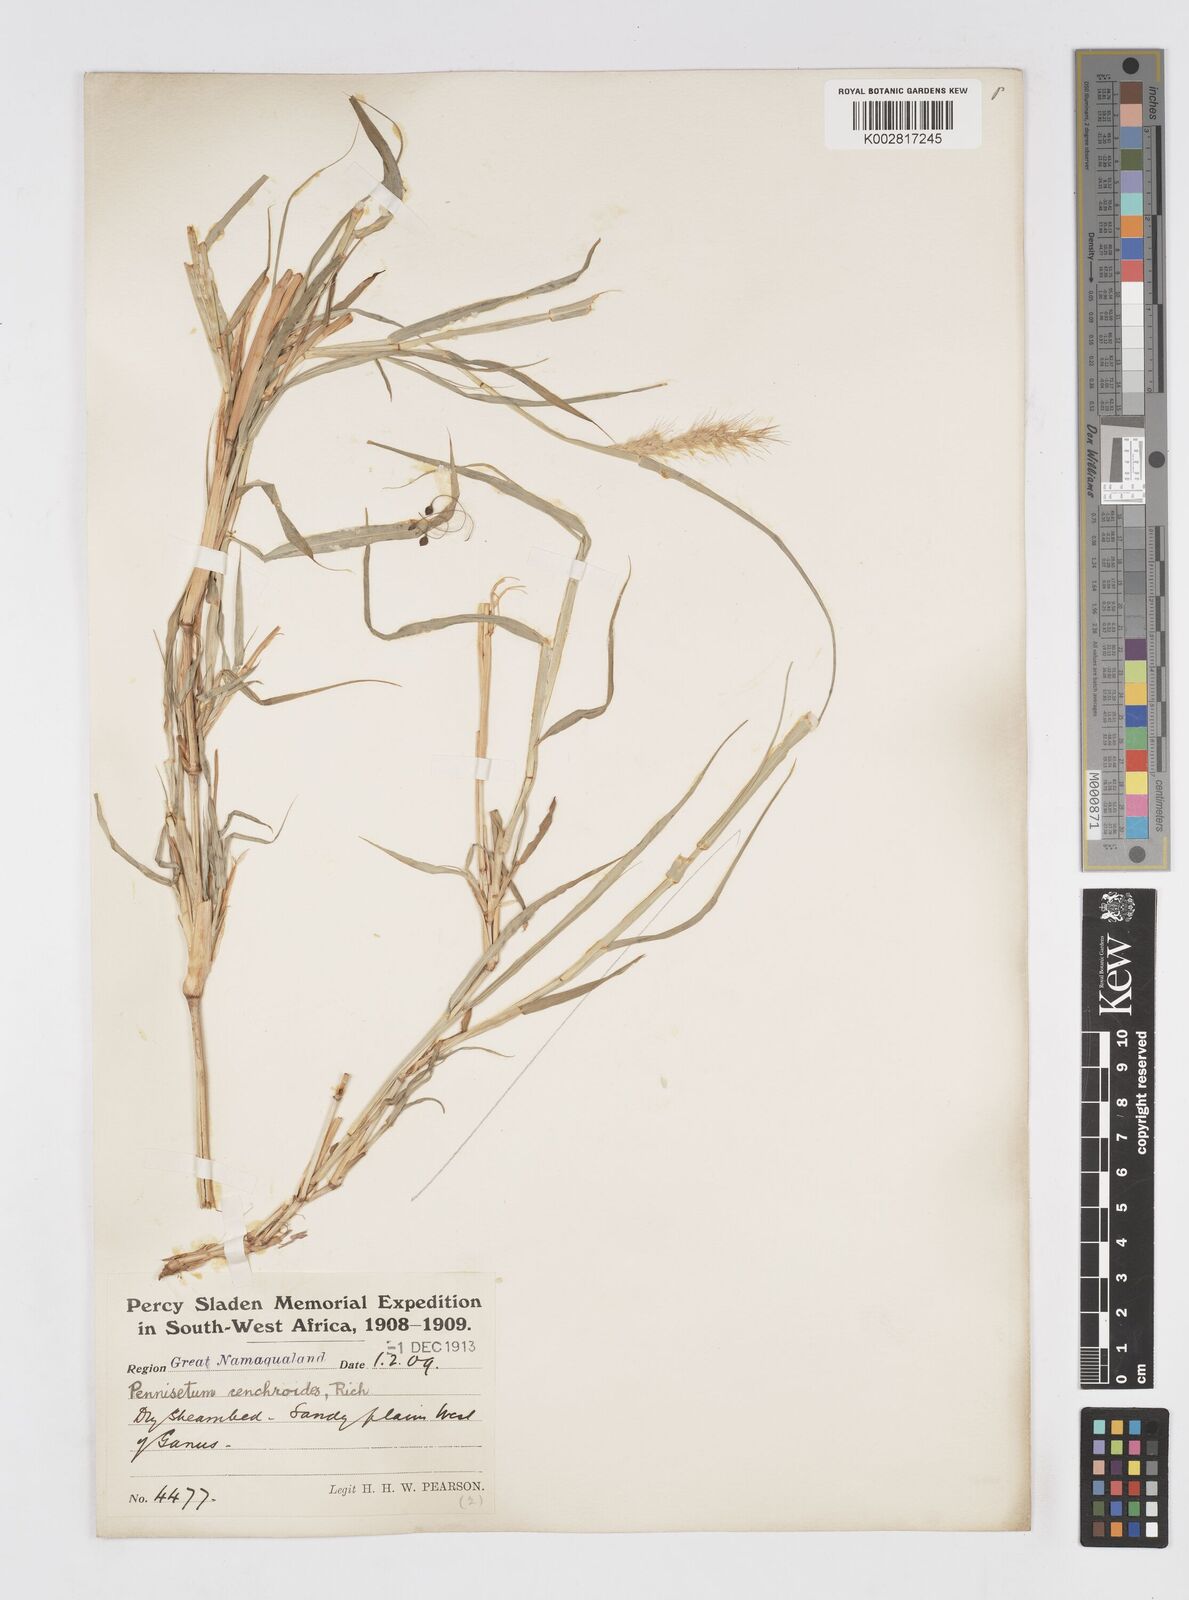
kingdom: Plantae
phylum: Tracheophyta
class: Liliopsida
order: Poales
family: Poaceae
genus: Cenchrus
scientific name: Cenchrus ciliaris
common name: Buffelgrass
